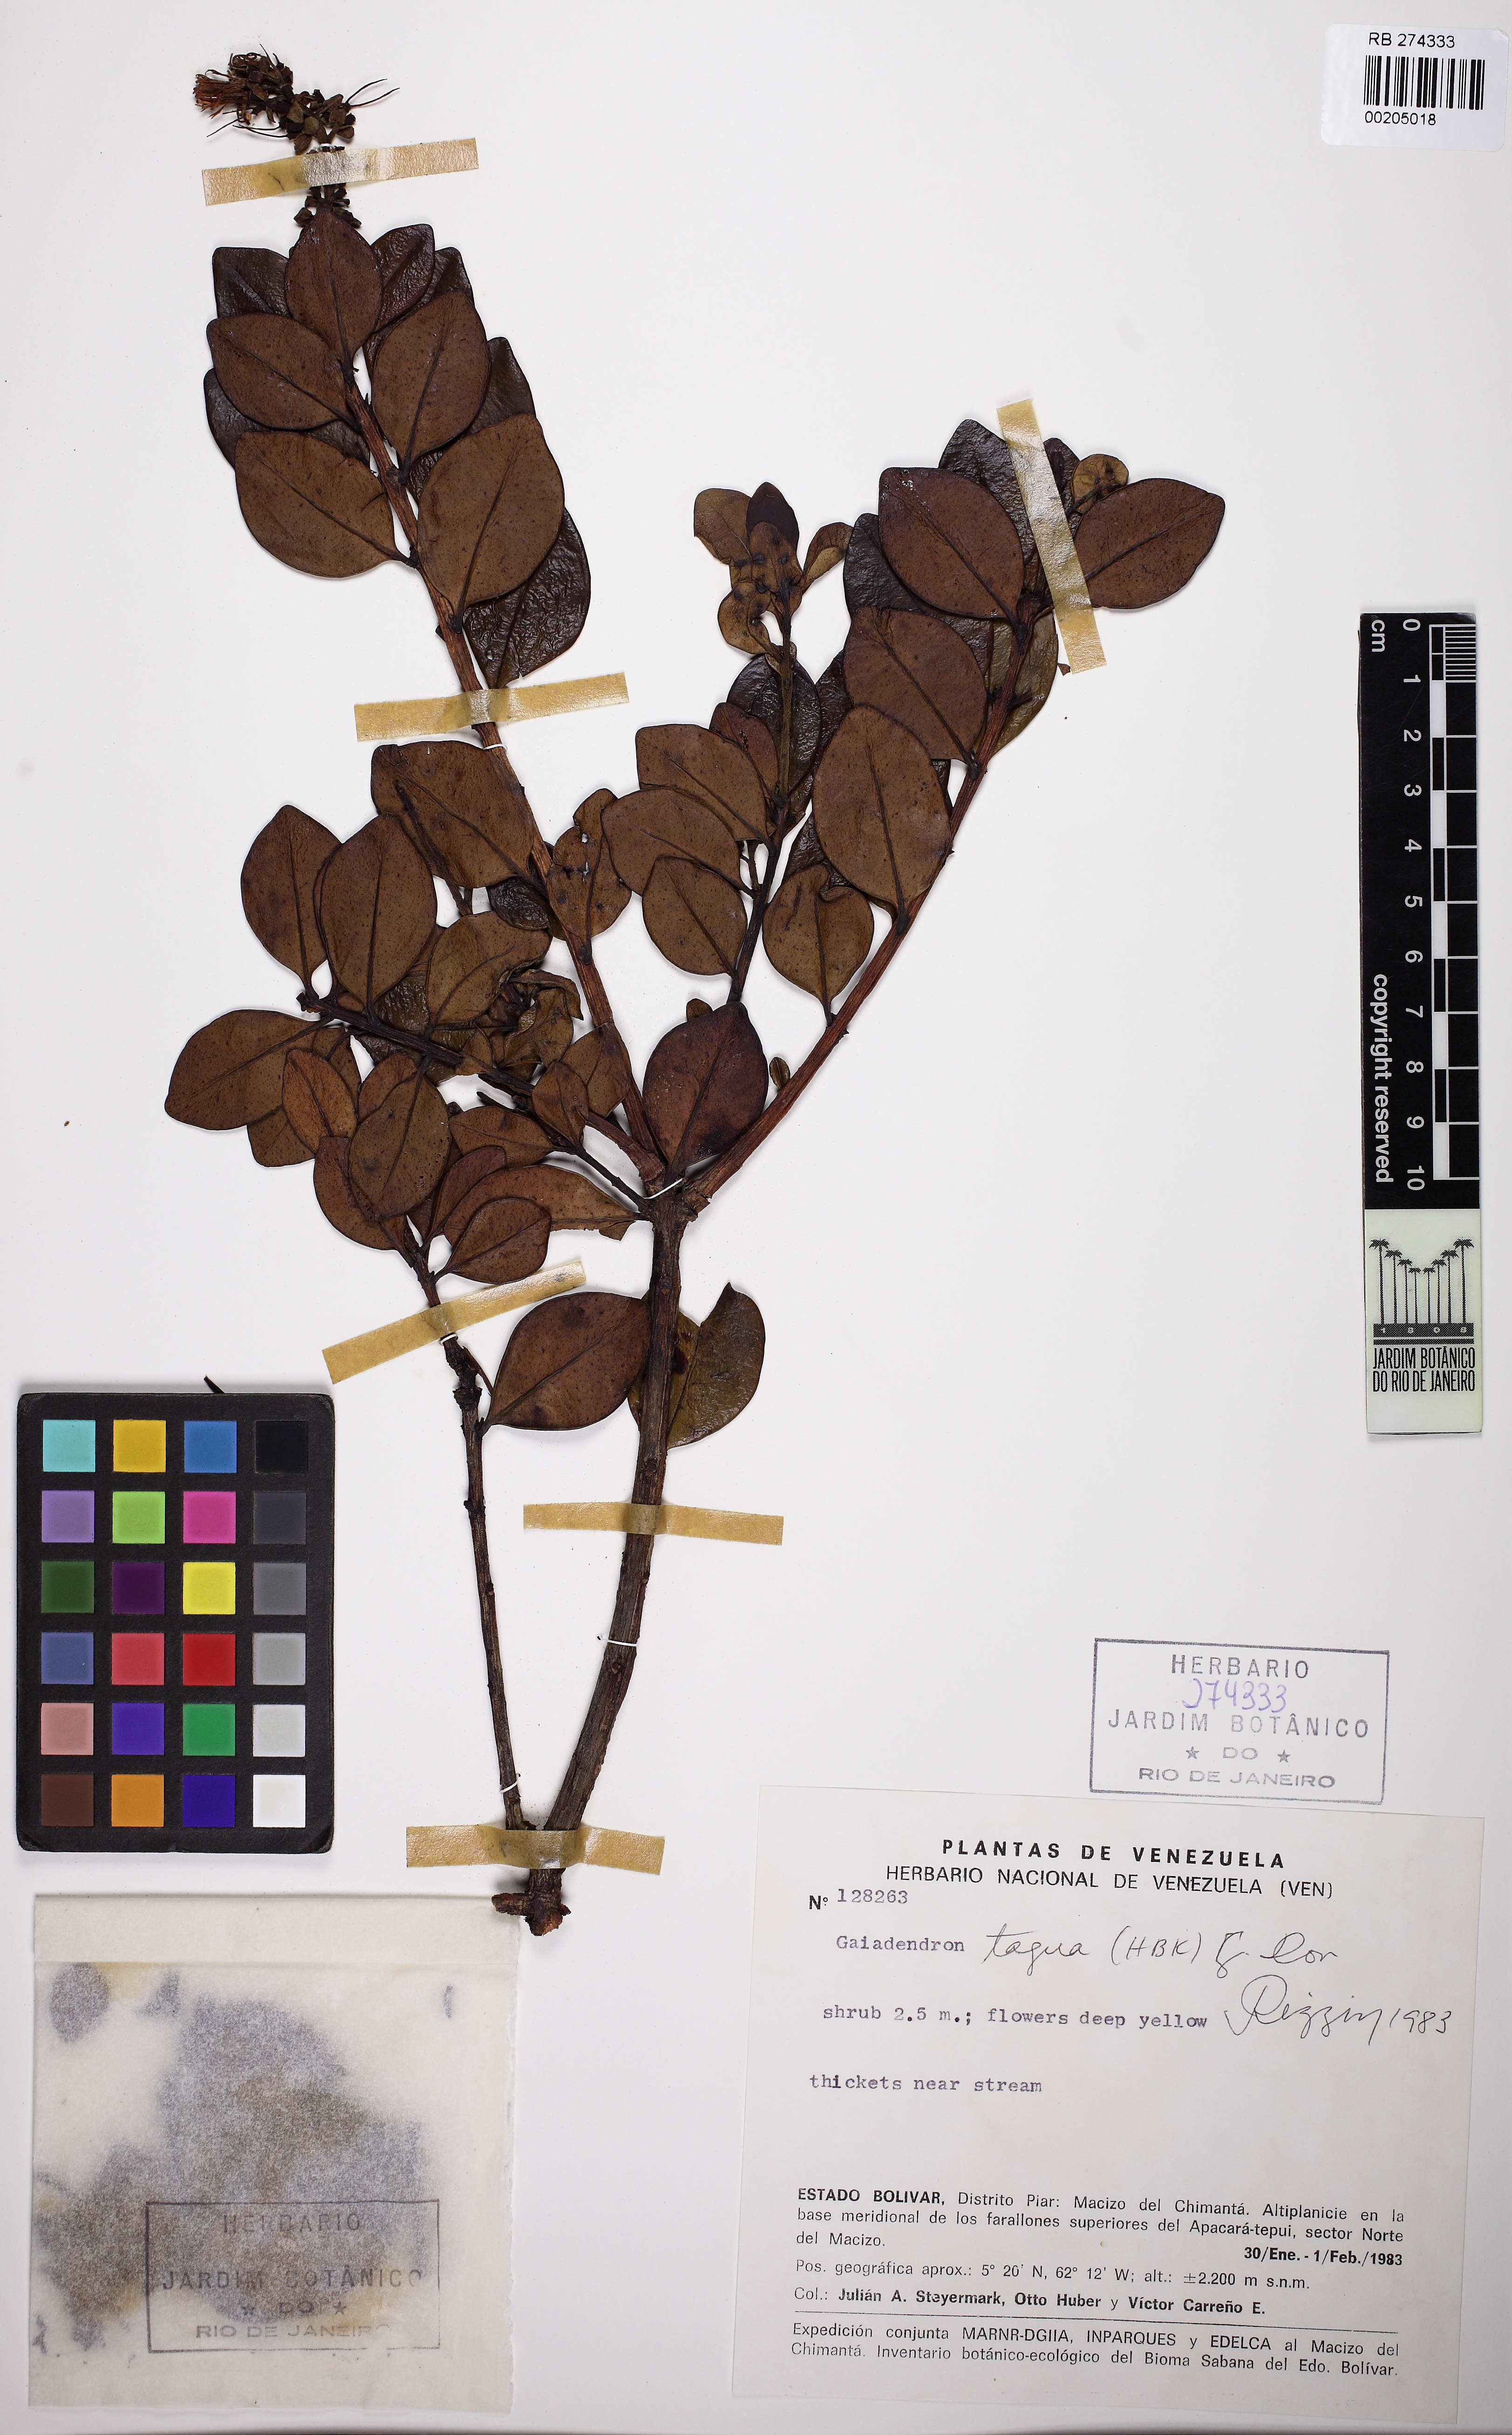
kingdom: Plantae
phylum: Tracheophyta
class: Magnoliopsida
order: Santalales
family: Loranthaceae
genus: Gaiadendron
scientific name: Gaiadendron punctatum
